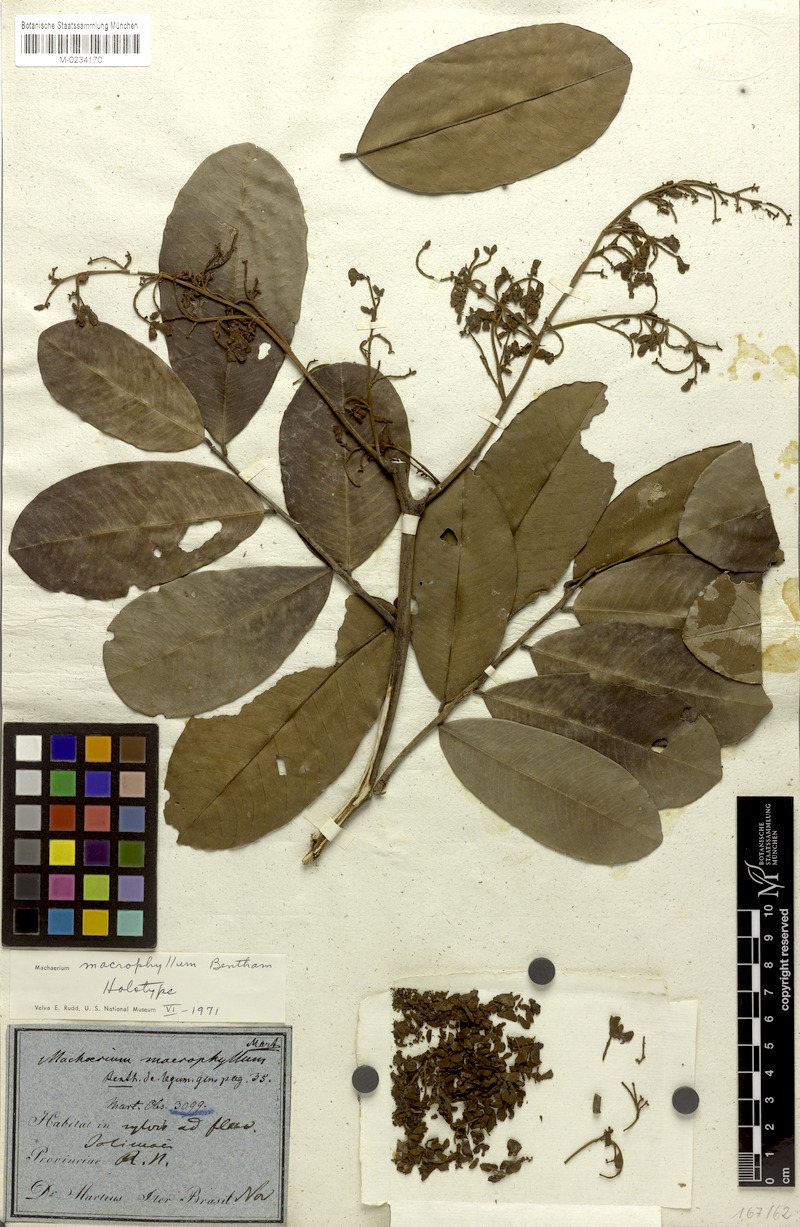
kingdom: Plantae
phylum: Tracheophyta
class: Magnoliopsida
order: Fabales
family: Fabaceae
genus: Machaerium
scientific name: Machaerium macrophyllum
